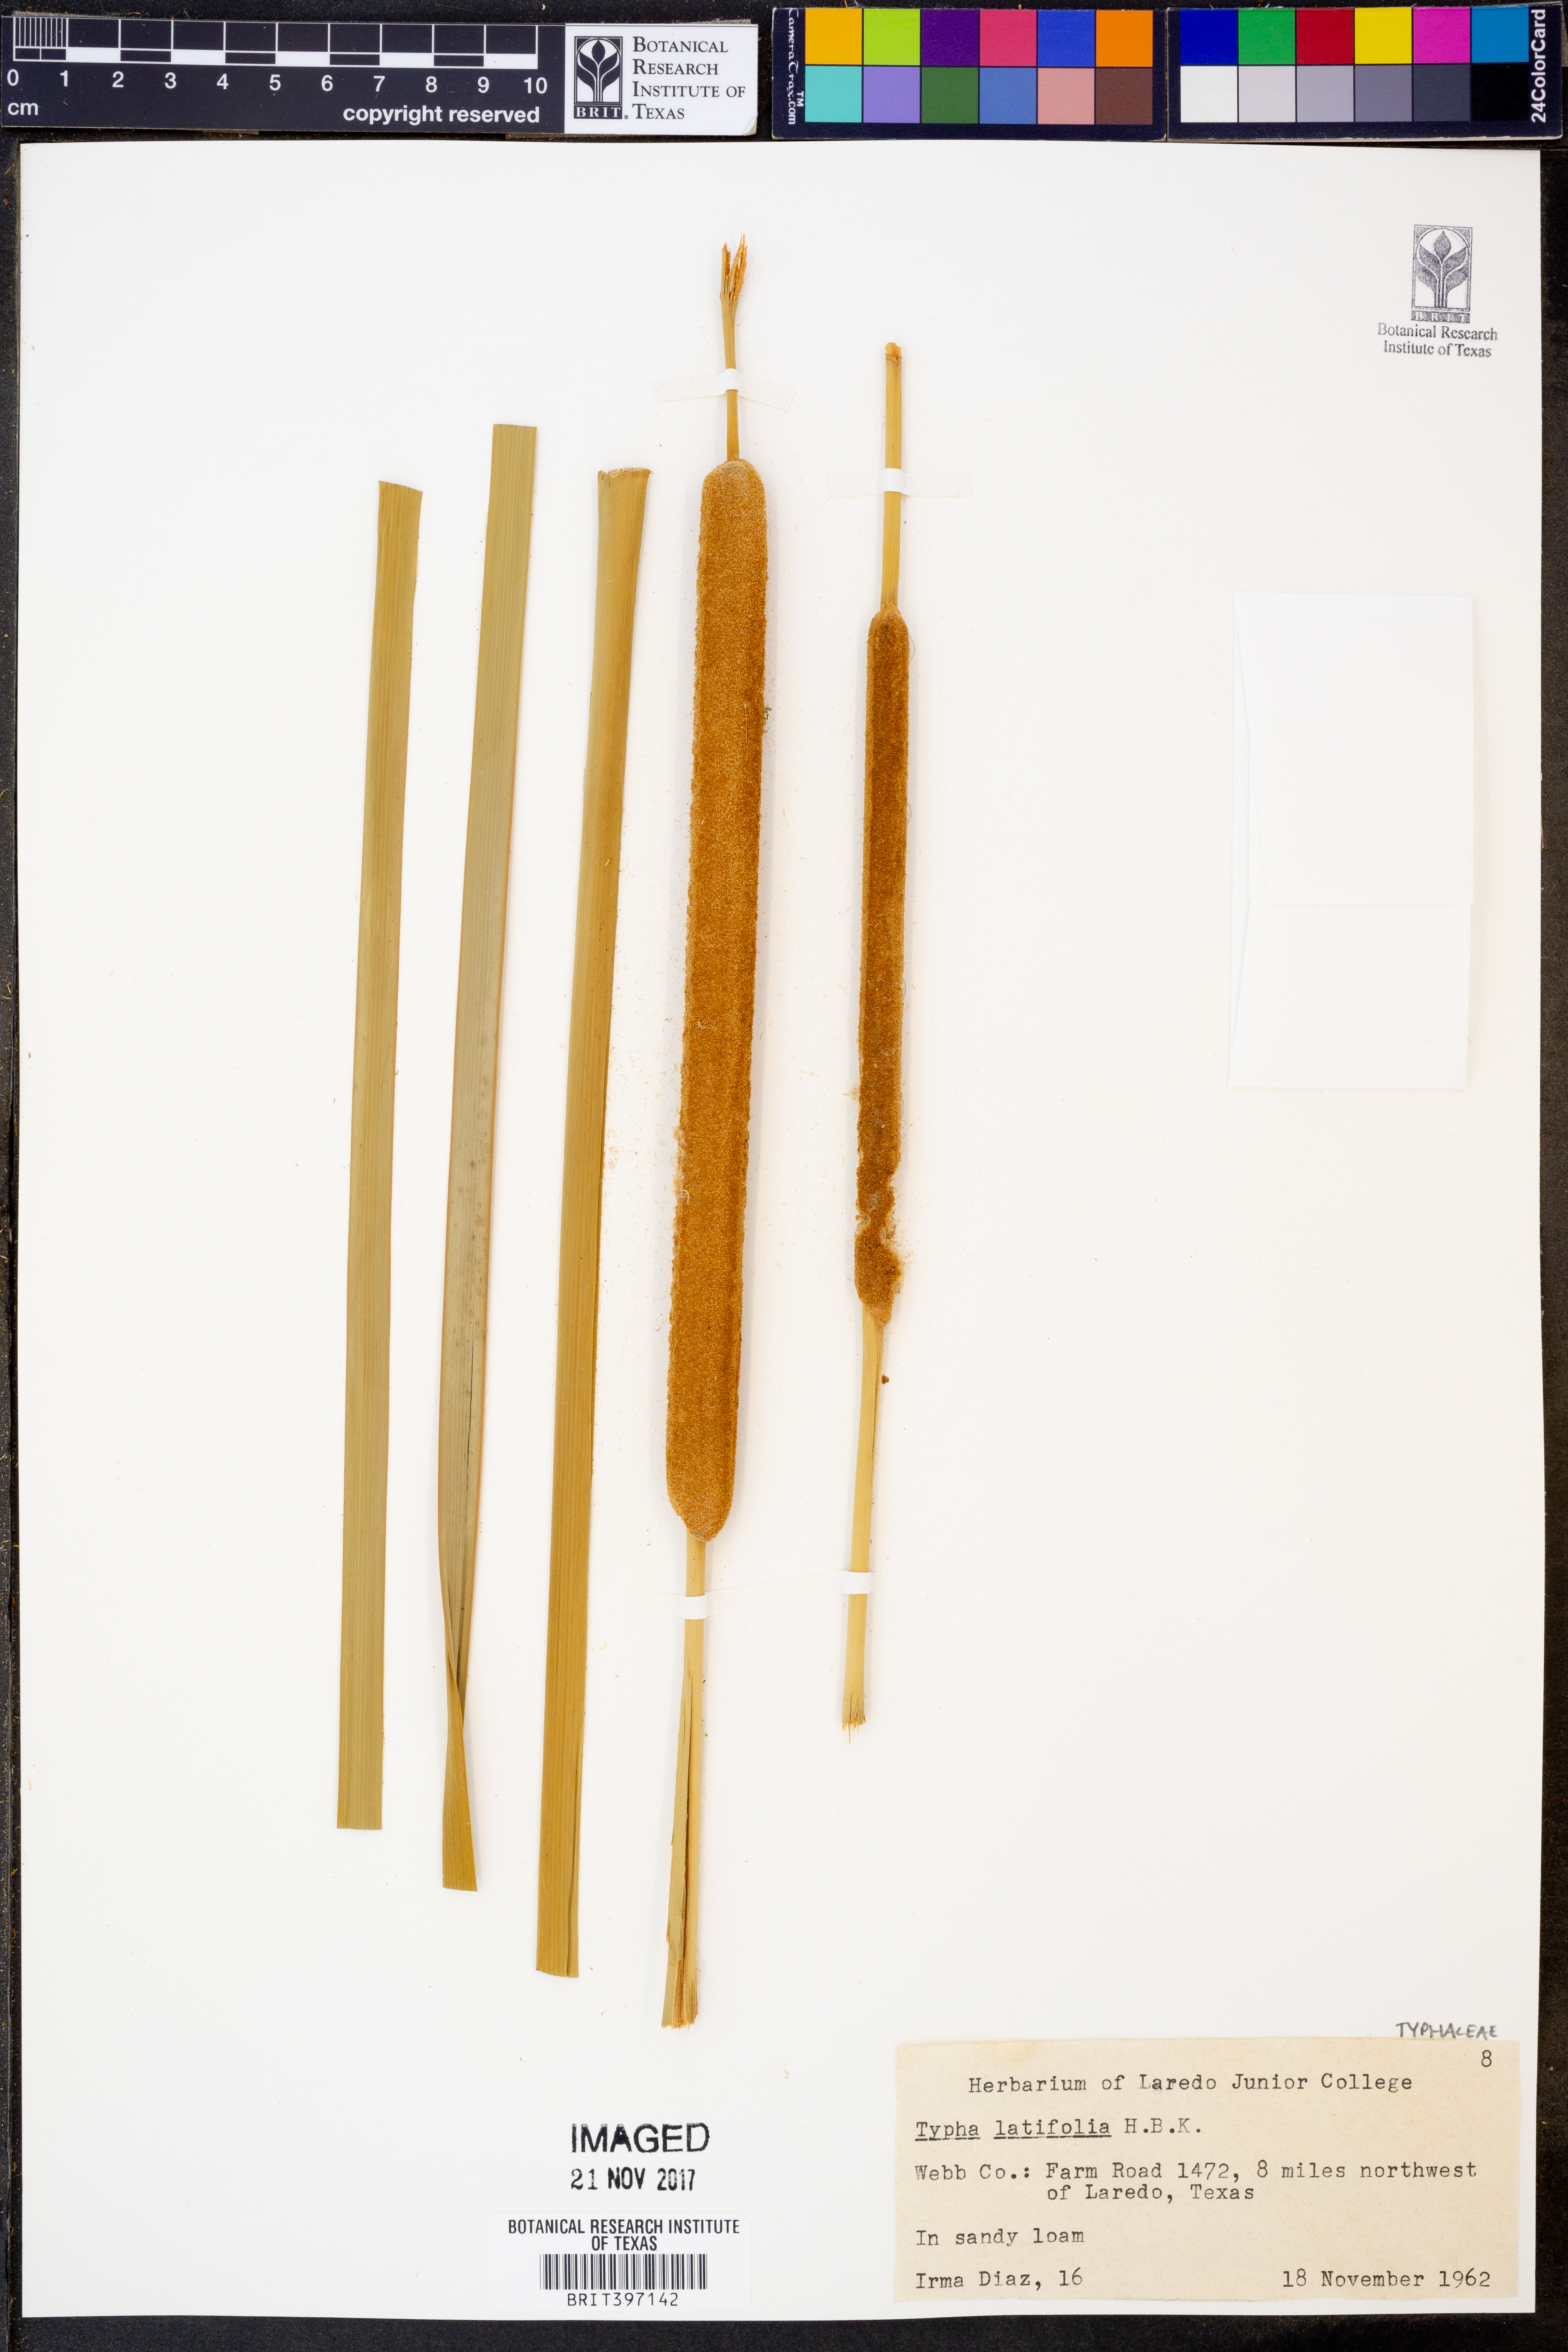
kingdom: Plantae
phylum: Tracheophyta
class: Liliopsida
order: Poales
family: Typhaceae
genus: Typha
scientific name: Typha latifolia
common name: Broadleaf cattail
